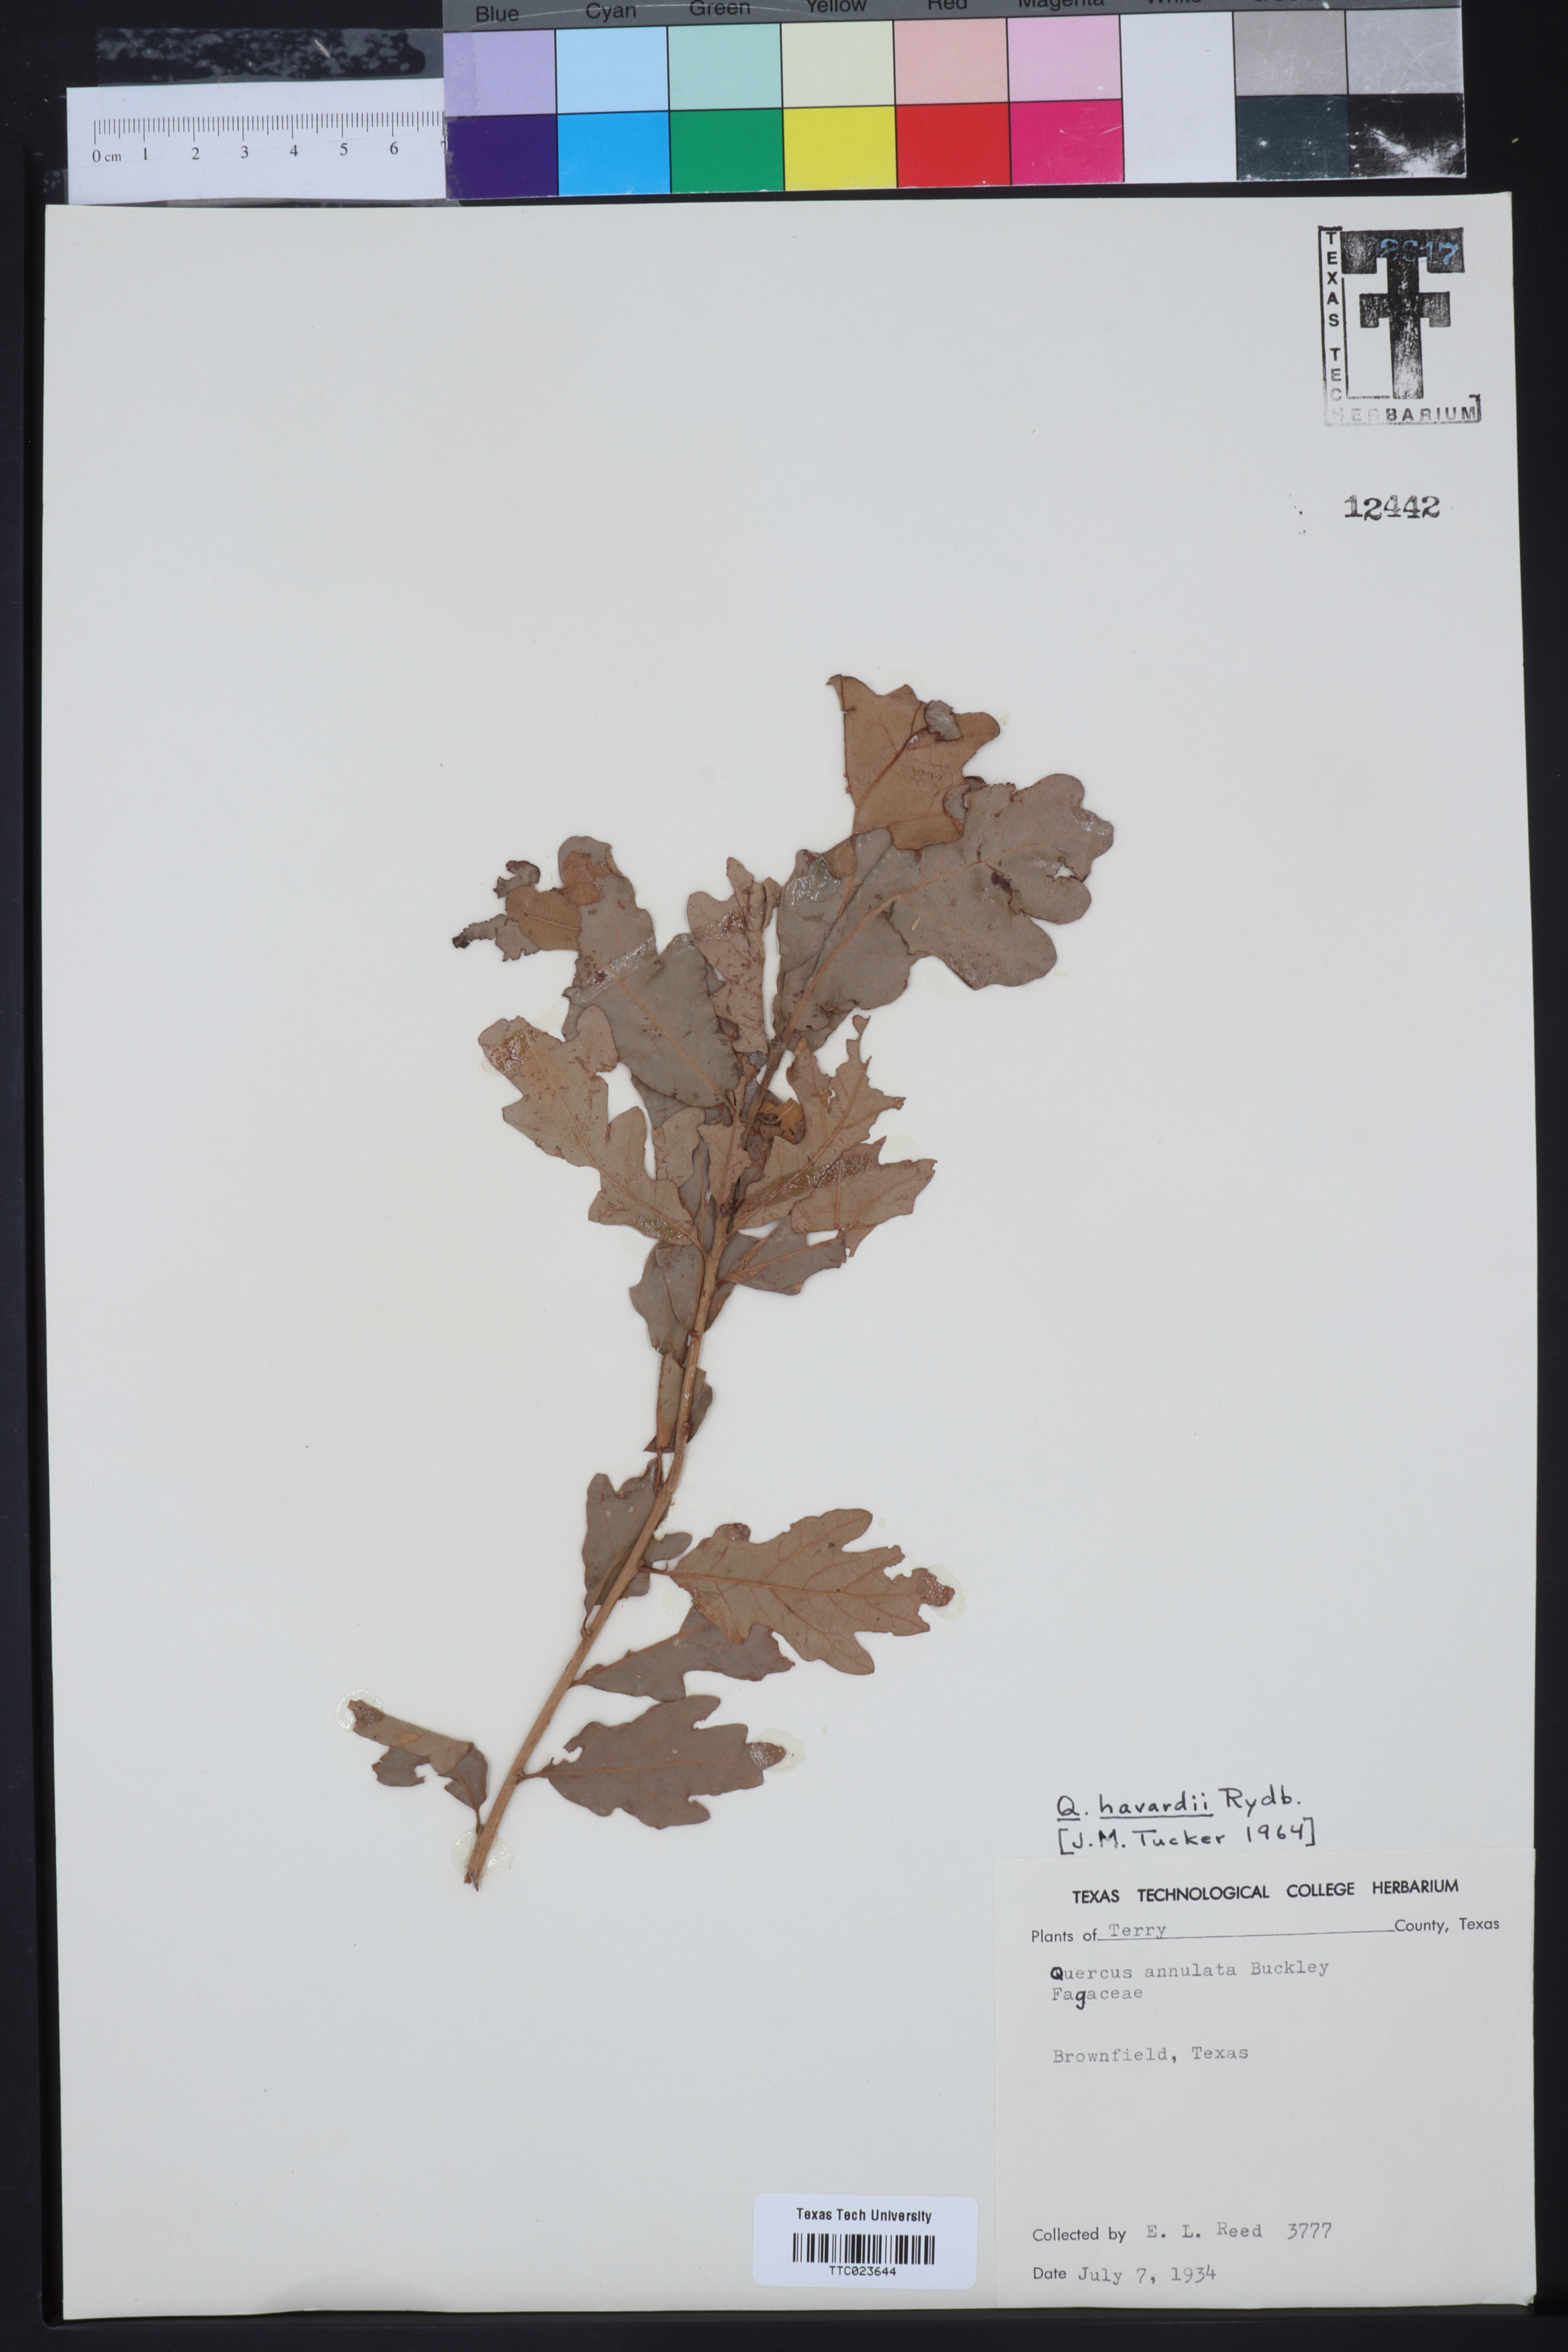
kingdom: Plantae
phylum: Tracheophyta
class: Magnoliopsida
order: Fagales
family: Fagaceae
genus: Quercus
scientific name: Quercus havardii
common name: Shinnery oak
